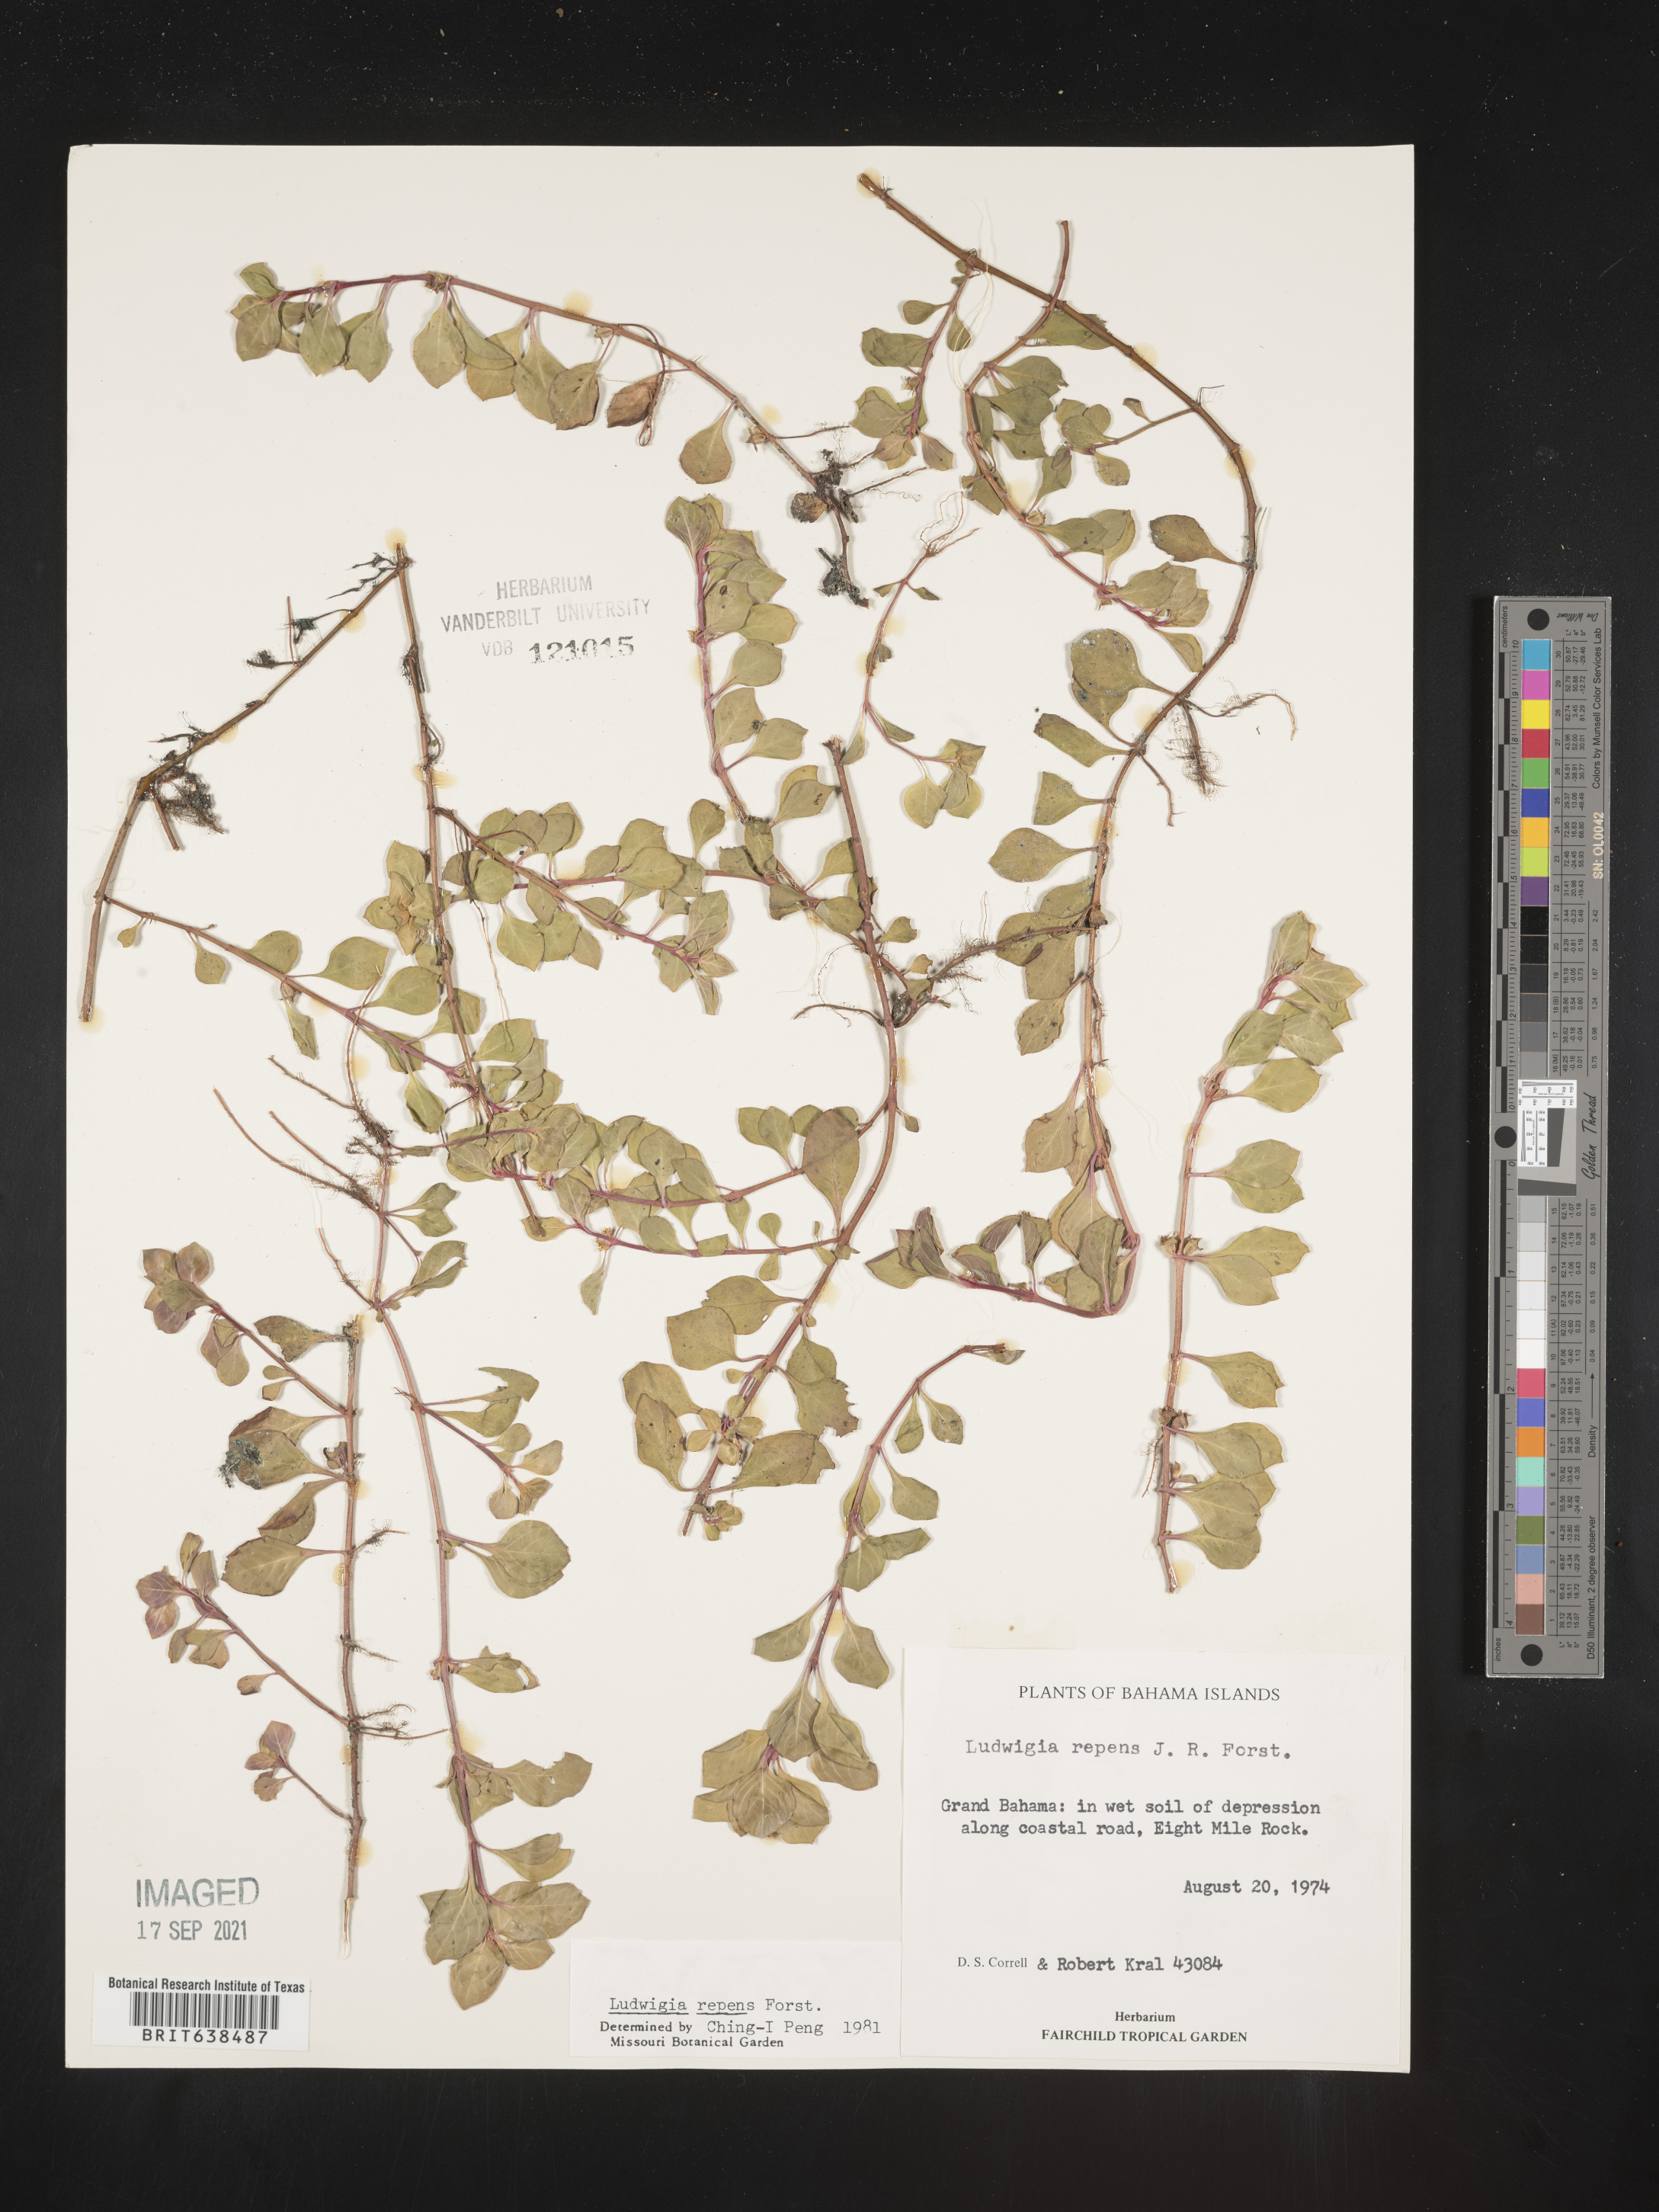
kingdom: Plantae
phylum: Tracheophyta
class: Magnoliopsida
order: Myrtales
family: Onagraceae
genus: Ludwigia
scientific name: Ludwigia
